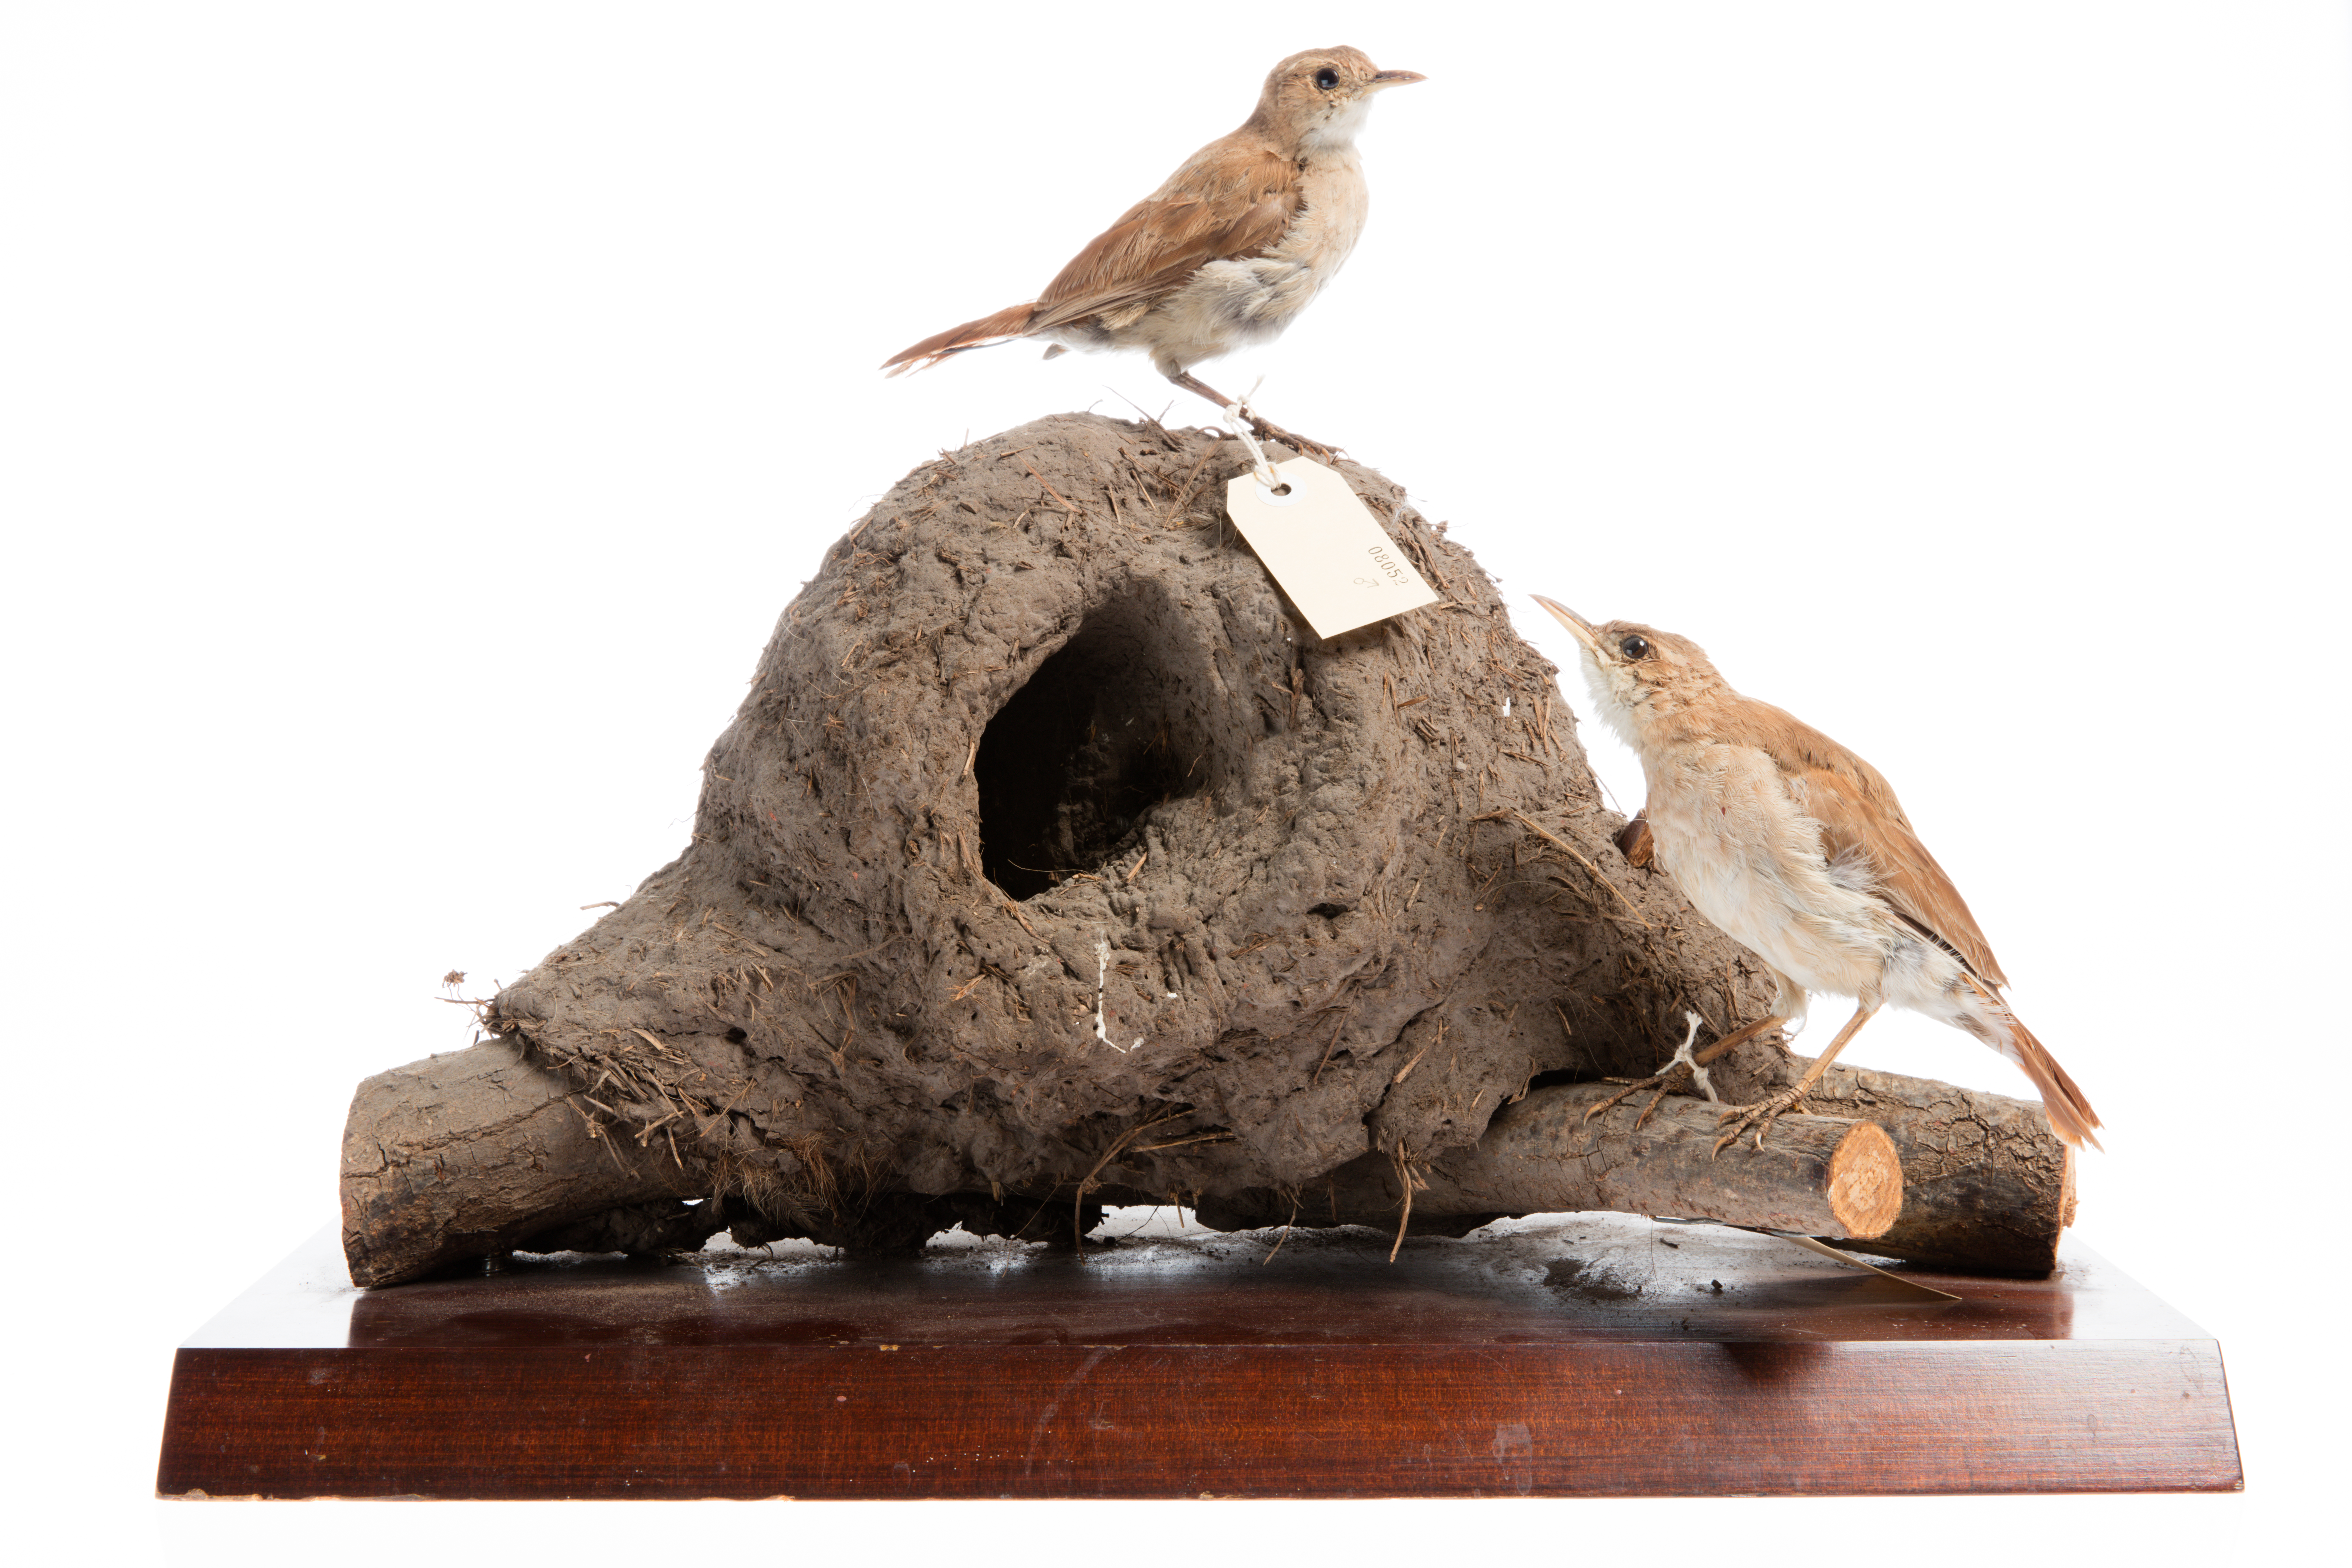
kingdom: Animalia
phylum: Chordata
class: Aves
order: Passeriformes
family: Furnariidae
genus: Furnarius
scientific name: Furnarius rufus
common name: Rufous hornero
